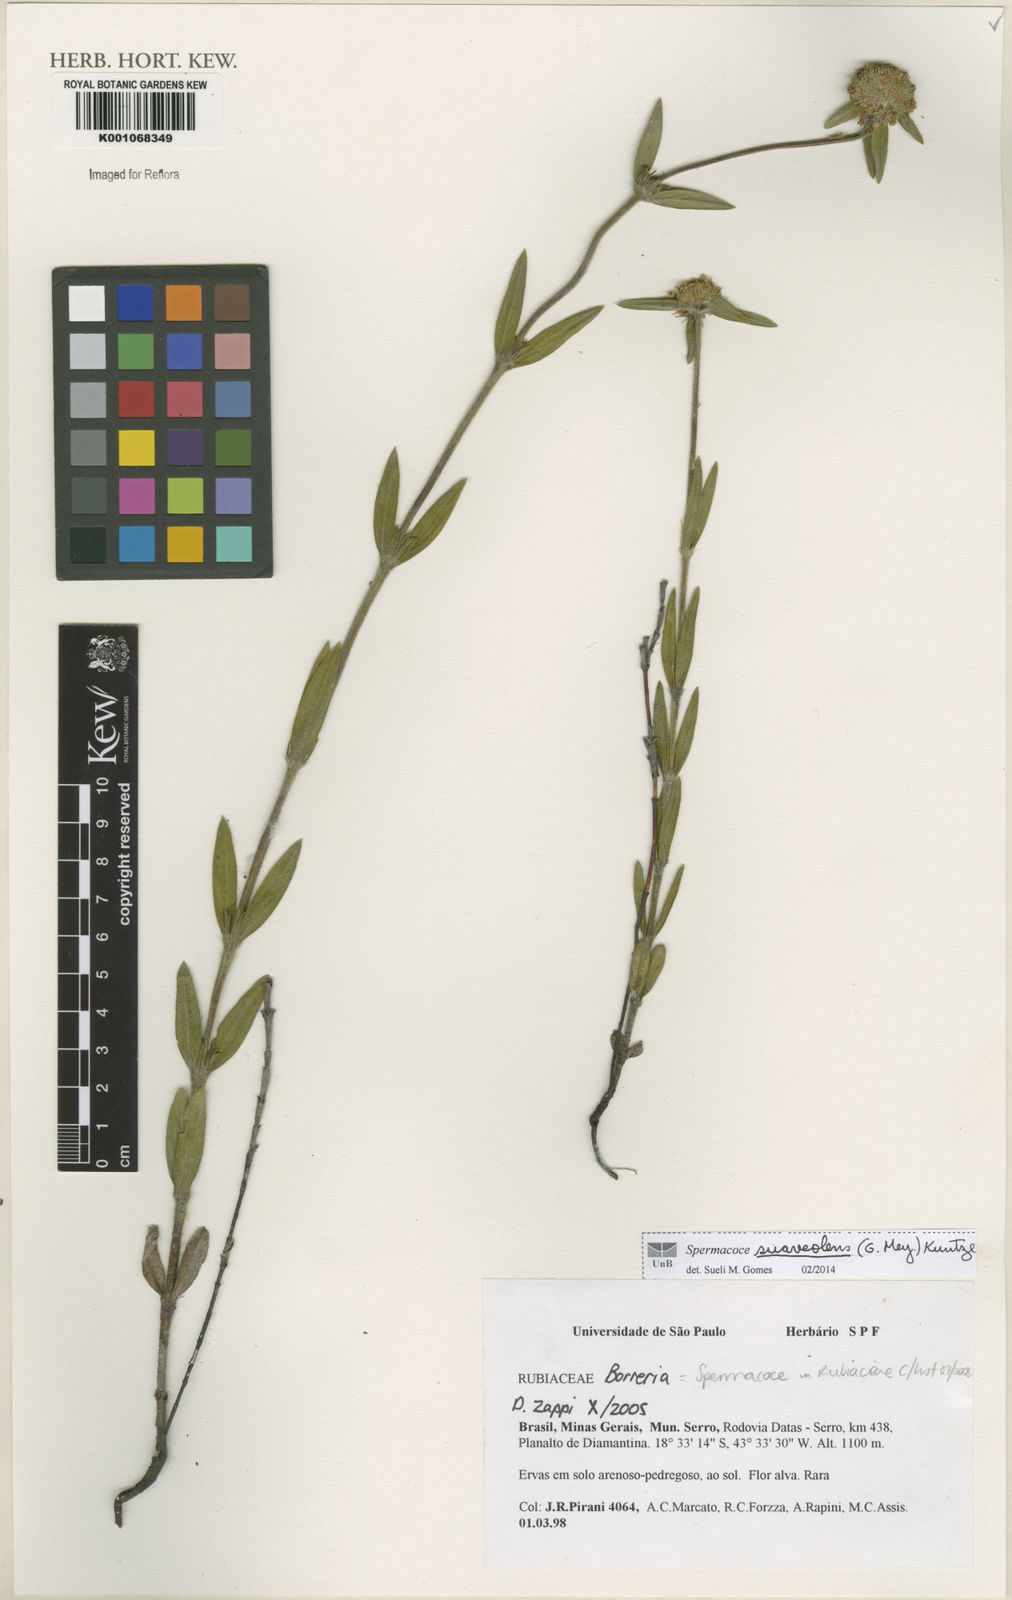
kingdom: Plantae
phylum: Tracheophyta
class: Magnoliopsida
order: Gentianales
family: Rubiaceae
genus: Spermacoce
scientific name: Spermacoce suaveolens
